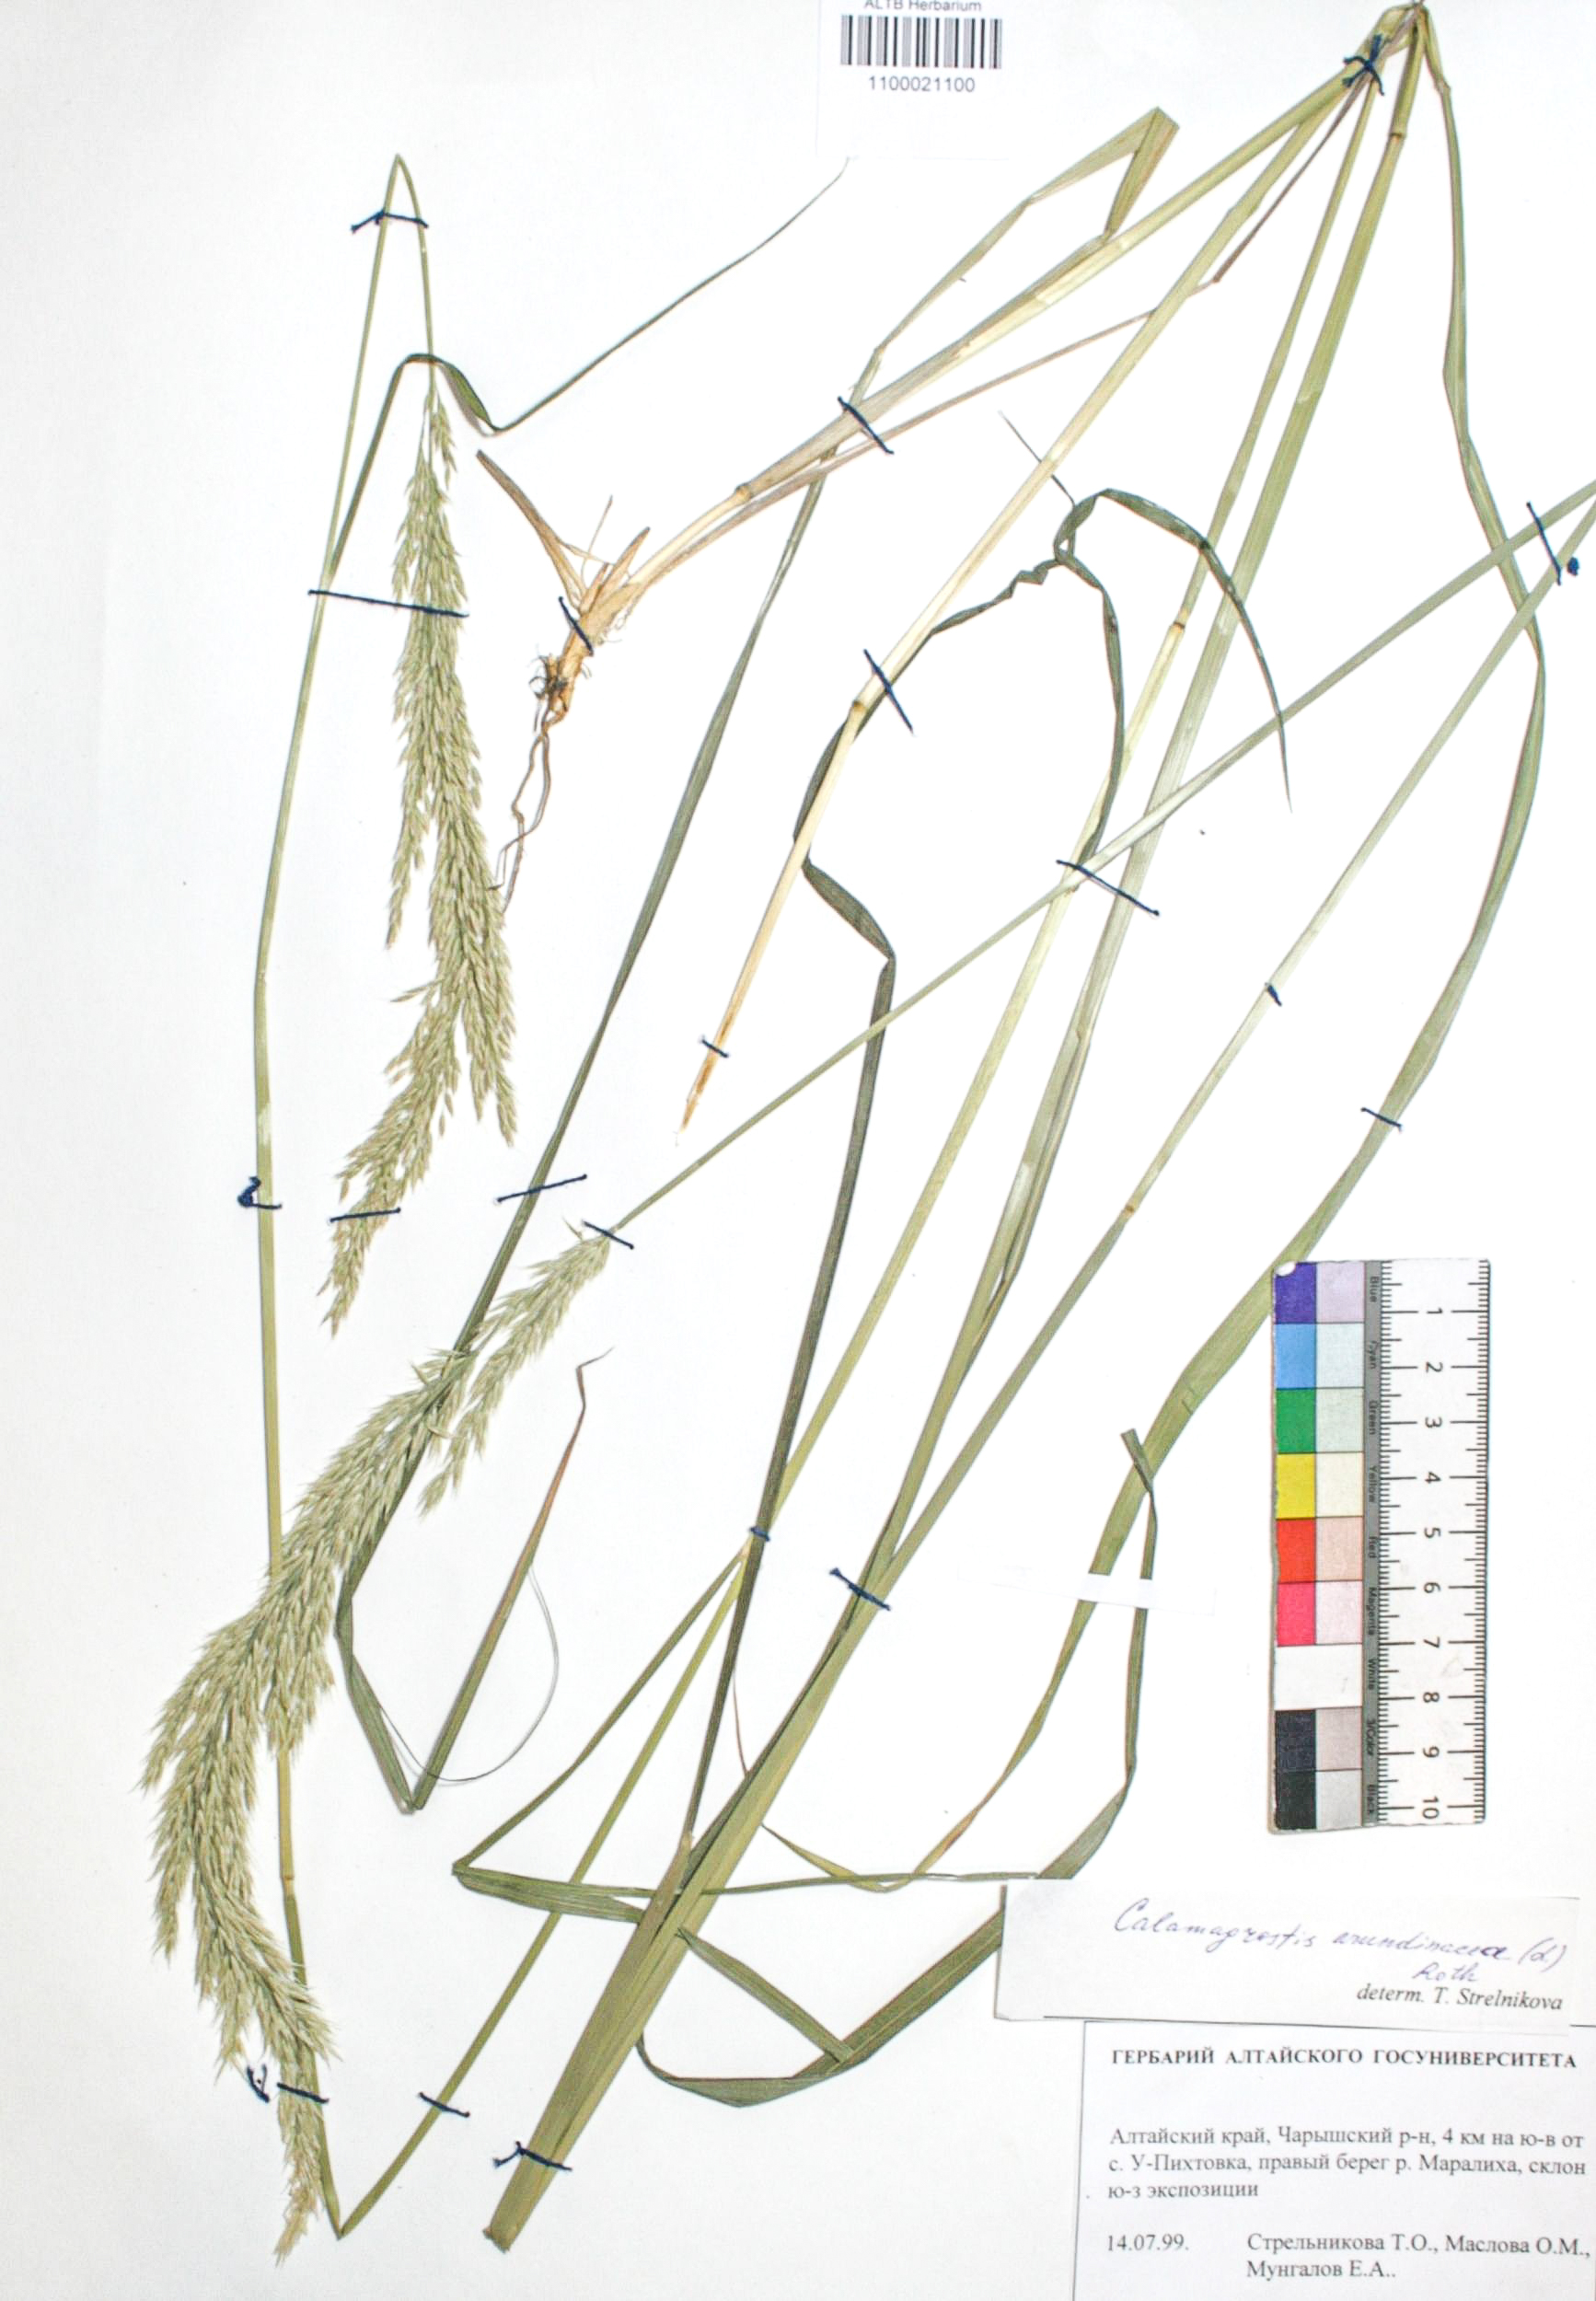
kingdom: Plantae
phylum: Tracheophyta
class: Liliopsida
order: Poales
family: Poaceae
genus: Calamagrostis
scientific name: Calamagrostis arundinacea
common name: Metskastik
